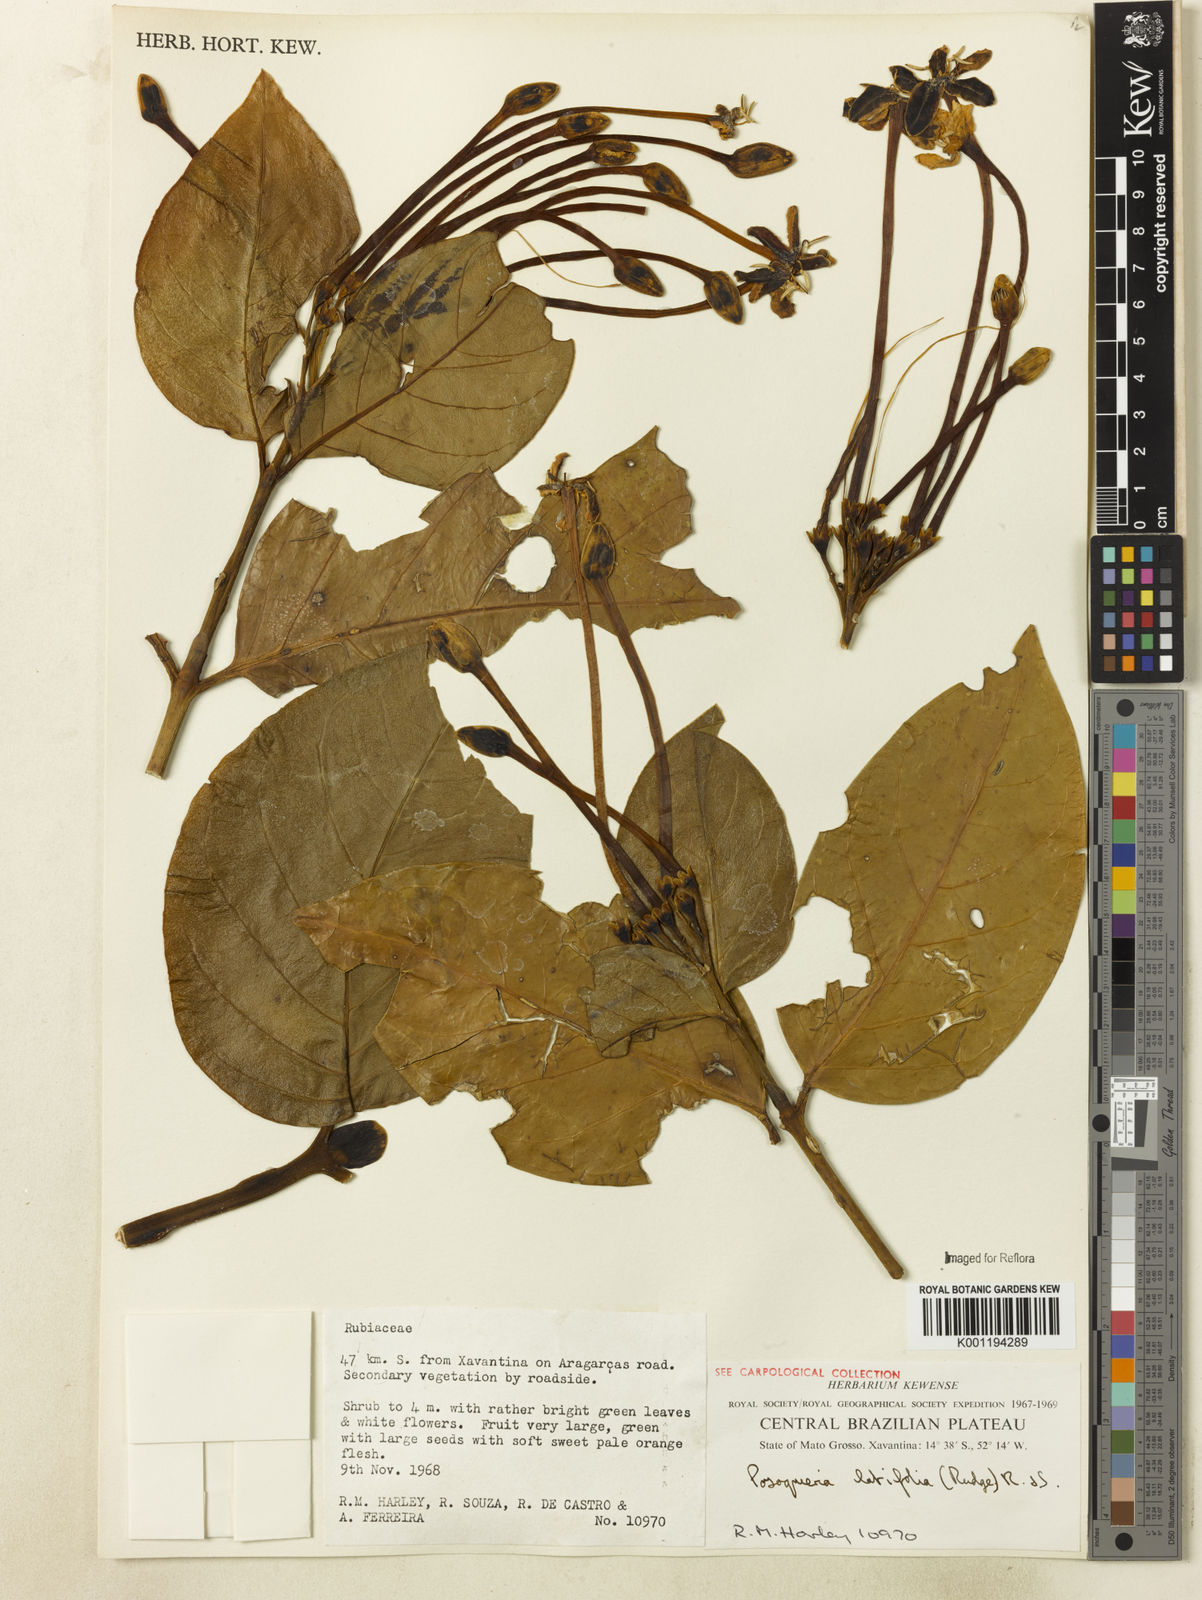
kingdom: Plantae
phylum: Tracheophyta
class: Magnoliopsida
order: Gentianales
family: Rubiaceae
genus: Posoqueria
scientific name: Posoqueria latifolia
